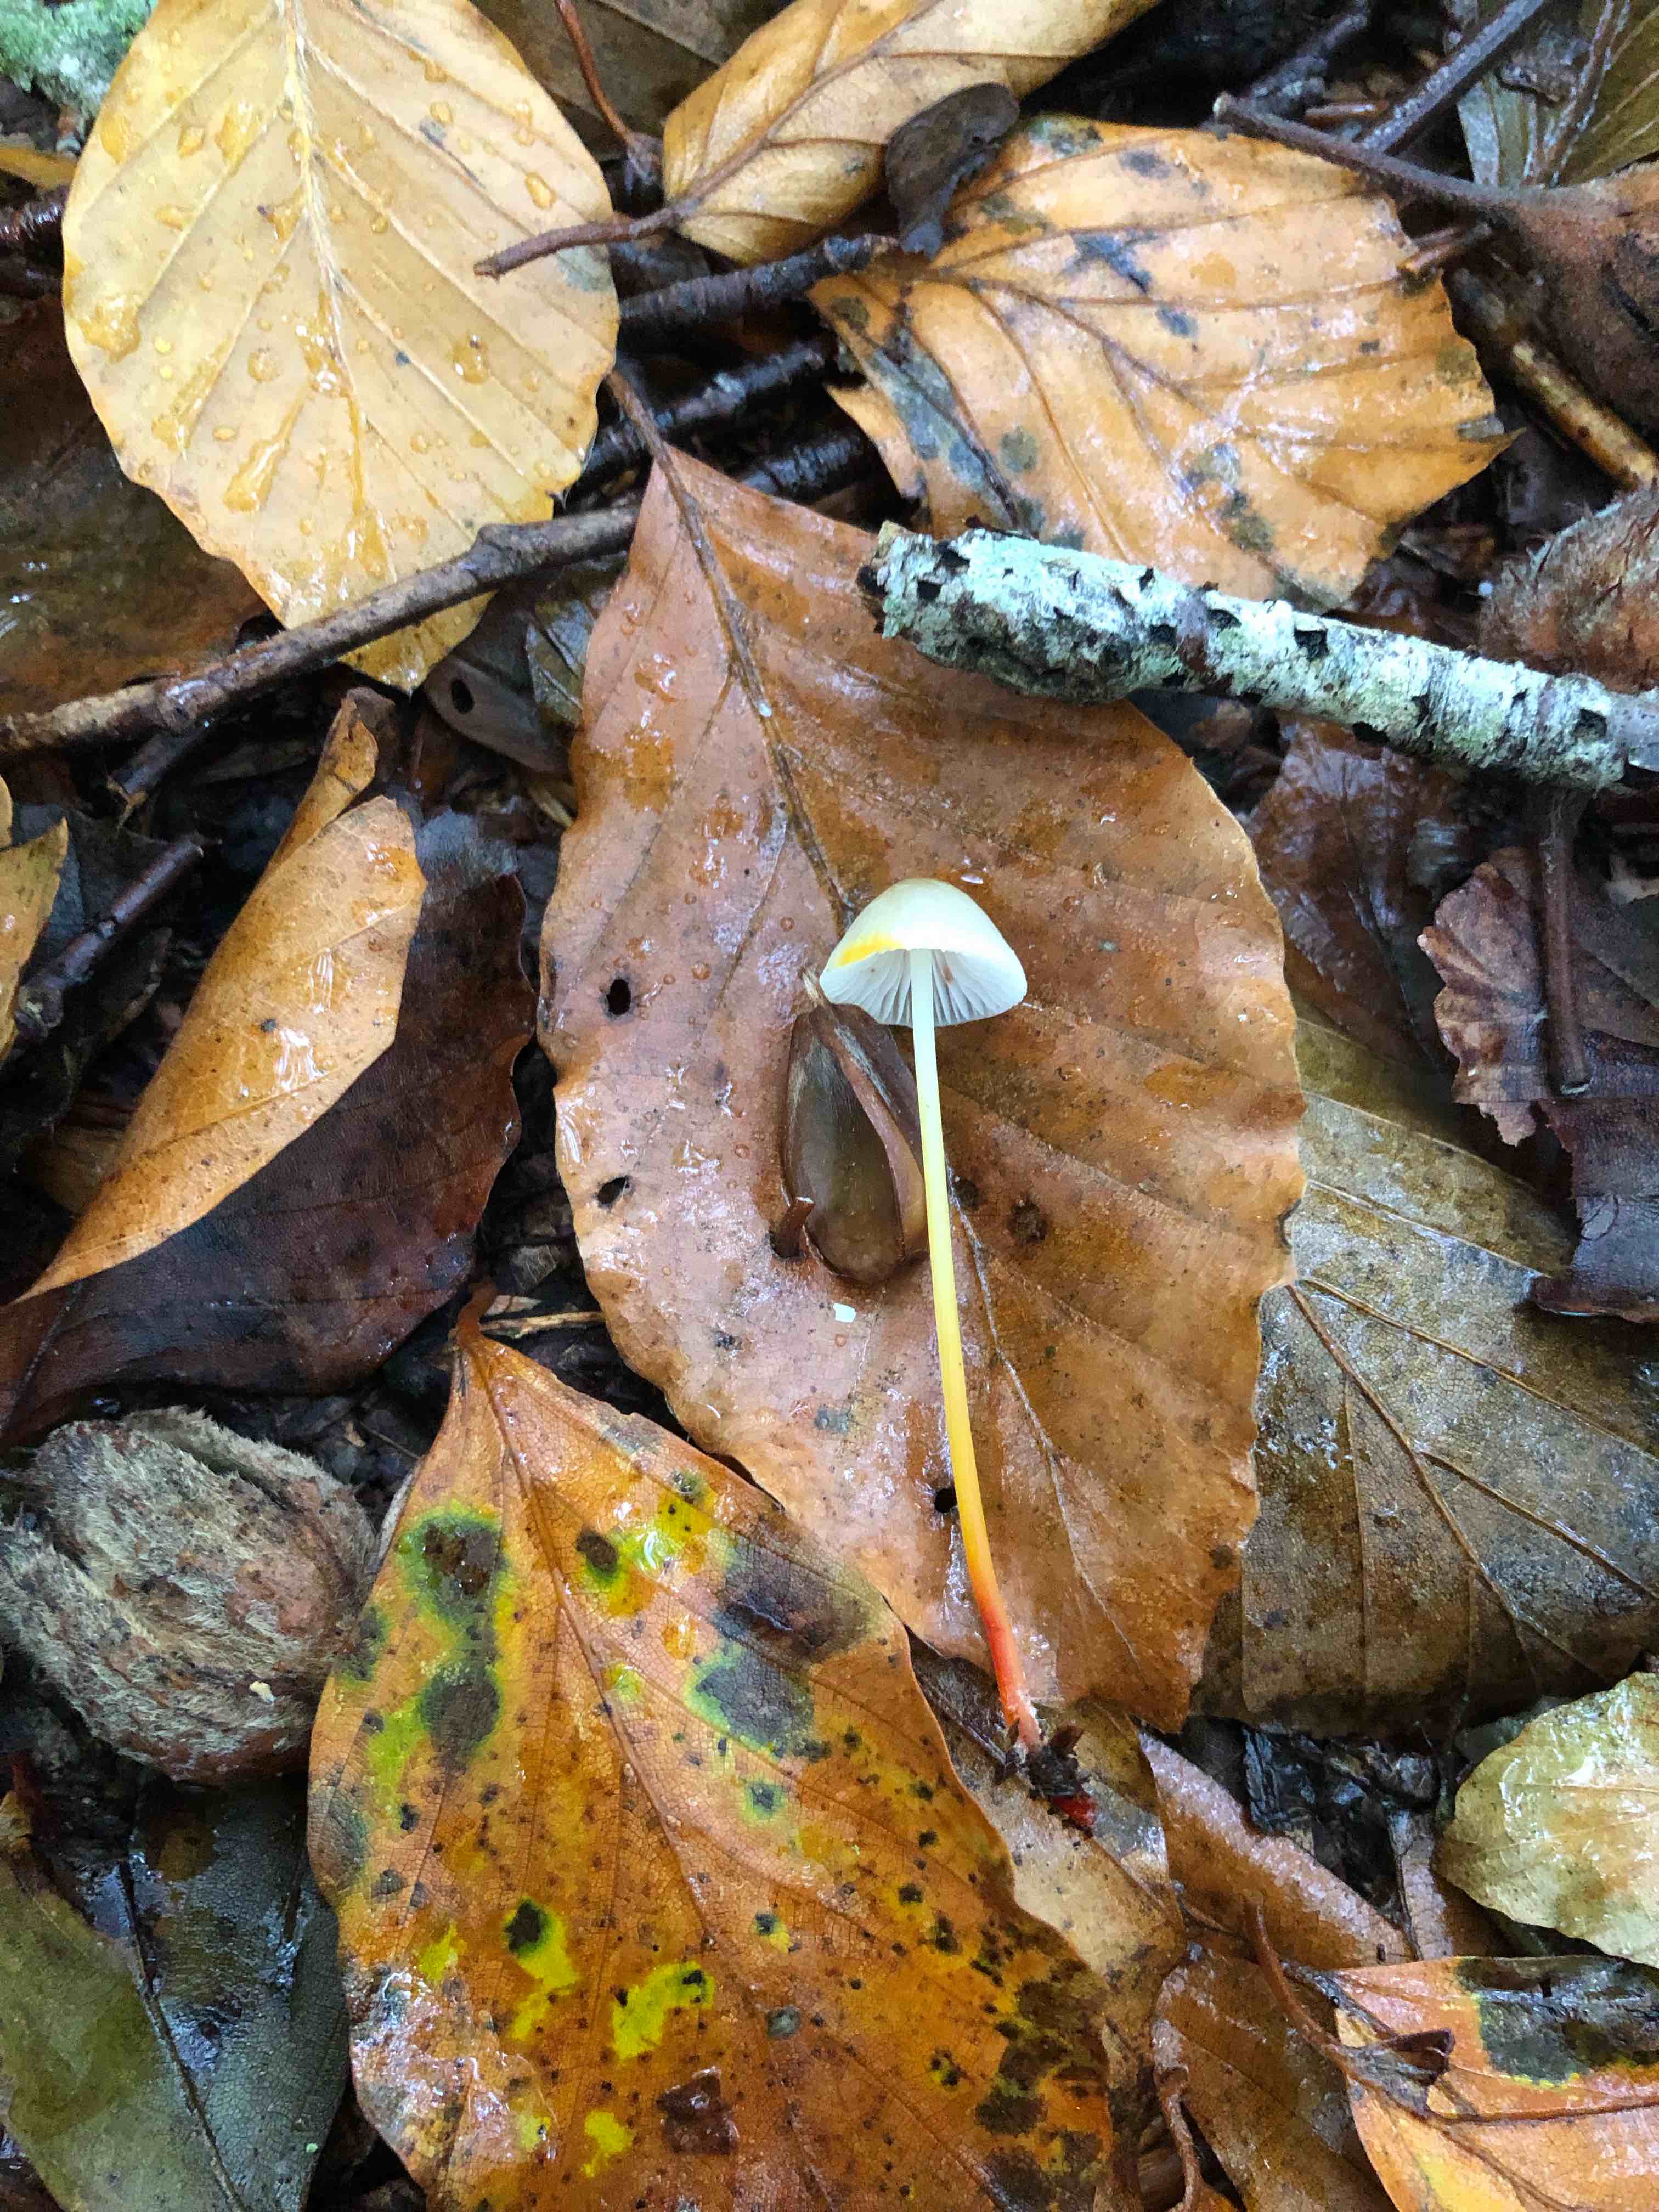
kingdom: Fungi
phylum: Basidiomycota
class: Agaricomycetes
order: Agaricales
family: Mycenaceae
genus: Mycena
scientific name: Mycena crocata
